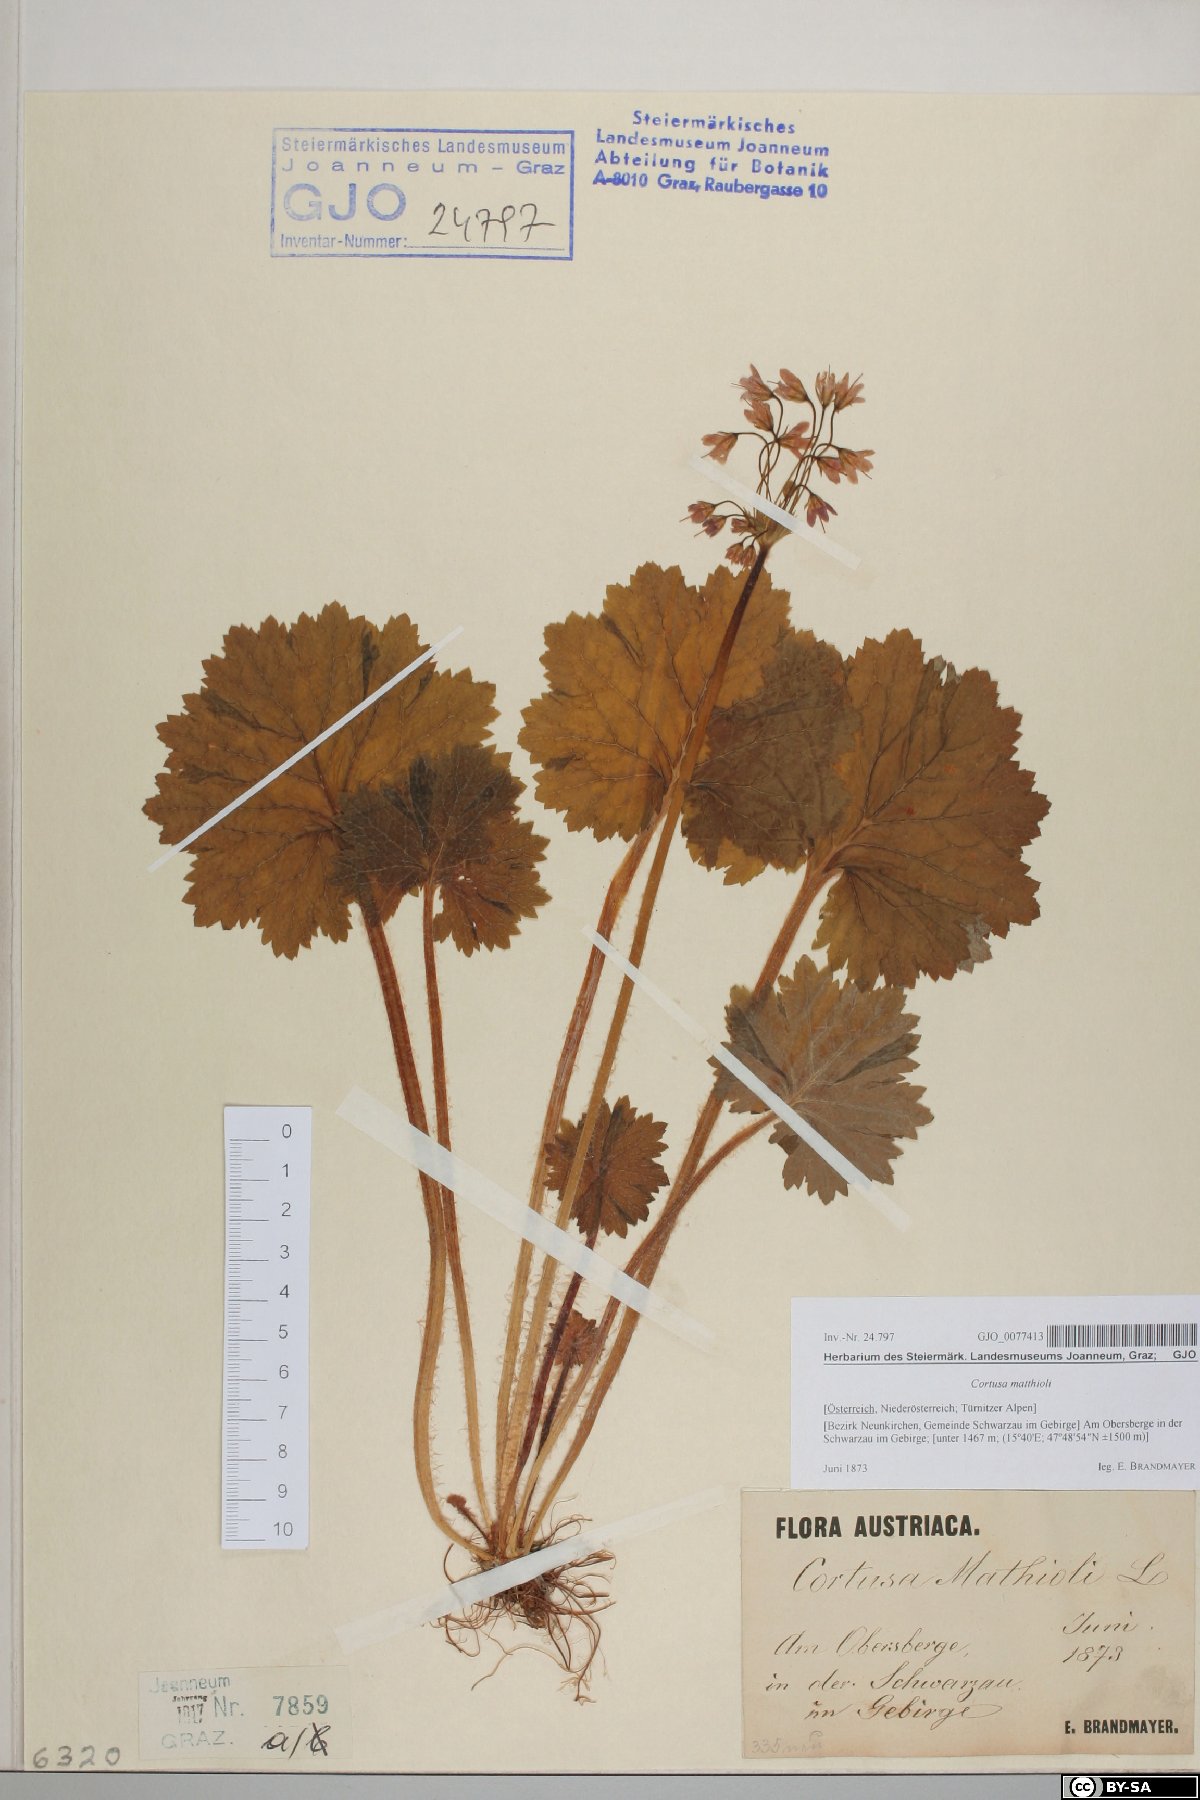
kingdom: Plantae
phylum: Tracheophyta
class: Magnoliopsida
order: Ericales
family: Primulaceae
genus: Primula
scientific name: Primula matthioli
